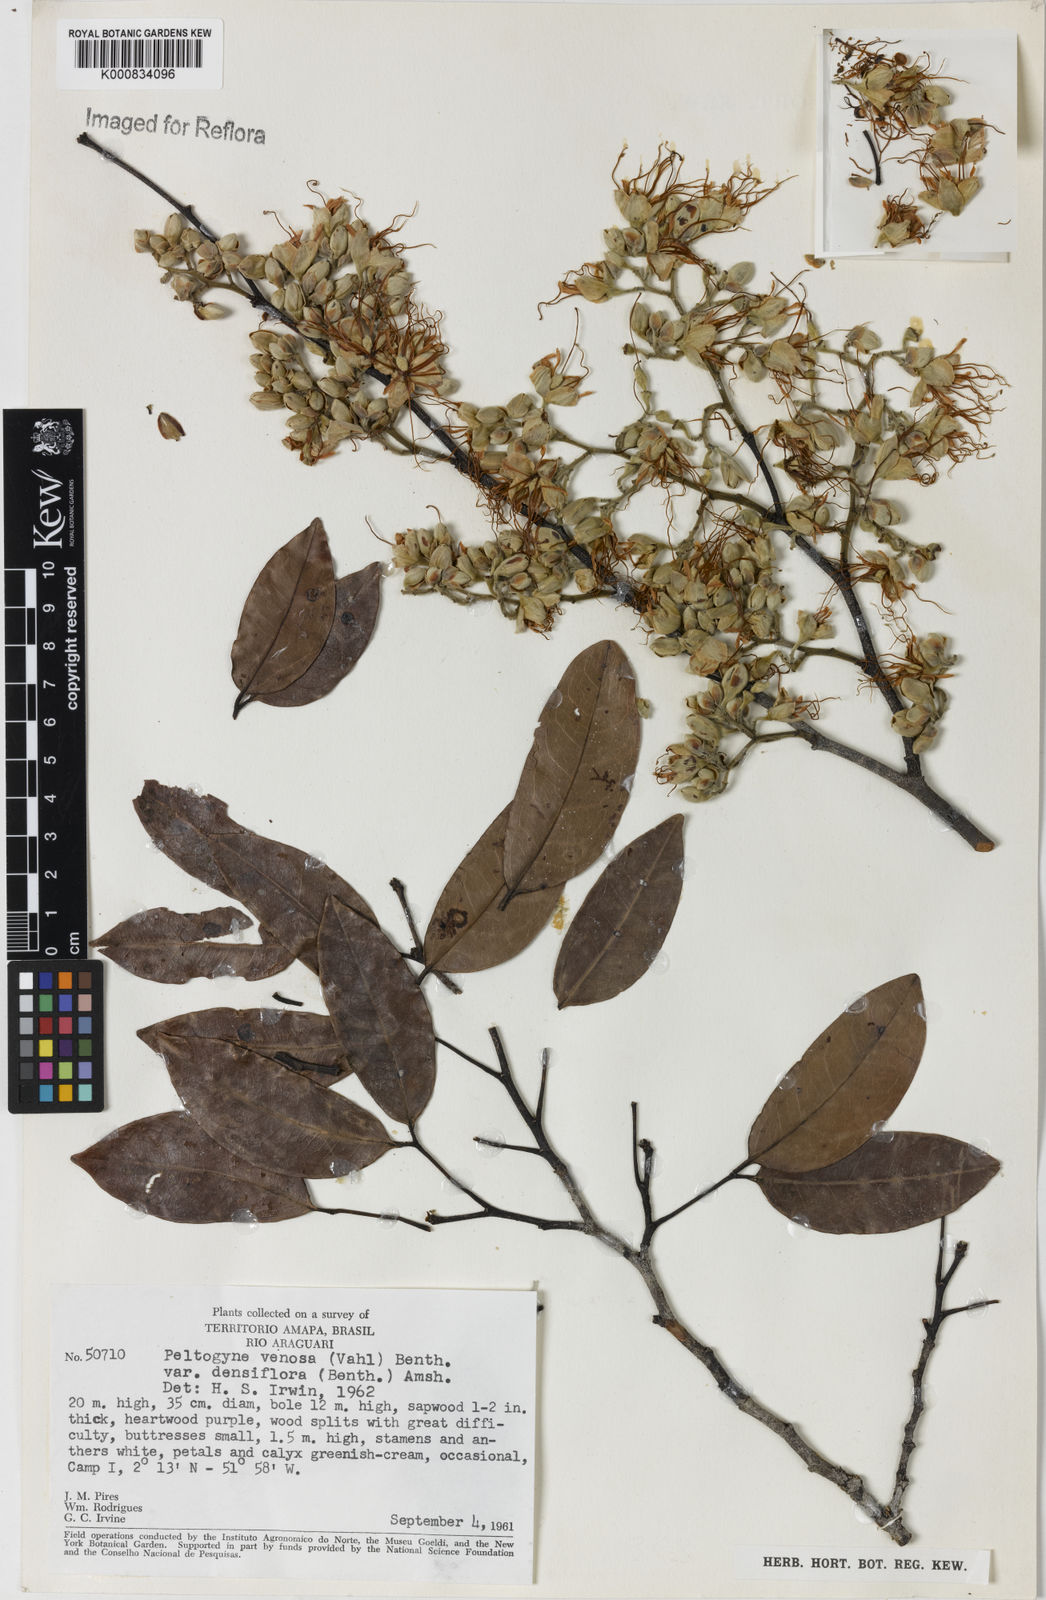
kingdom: Plantae
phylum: Tracheophyta
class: Magnoliopsida
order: Fabales
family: Fabaceae
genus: Peltogyne
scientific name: Peltogyne venosa
